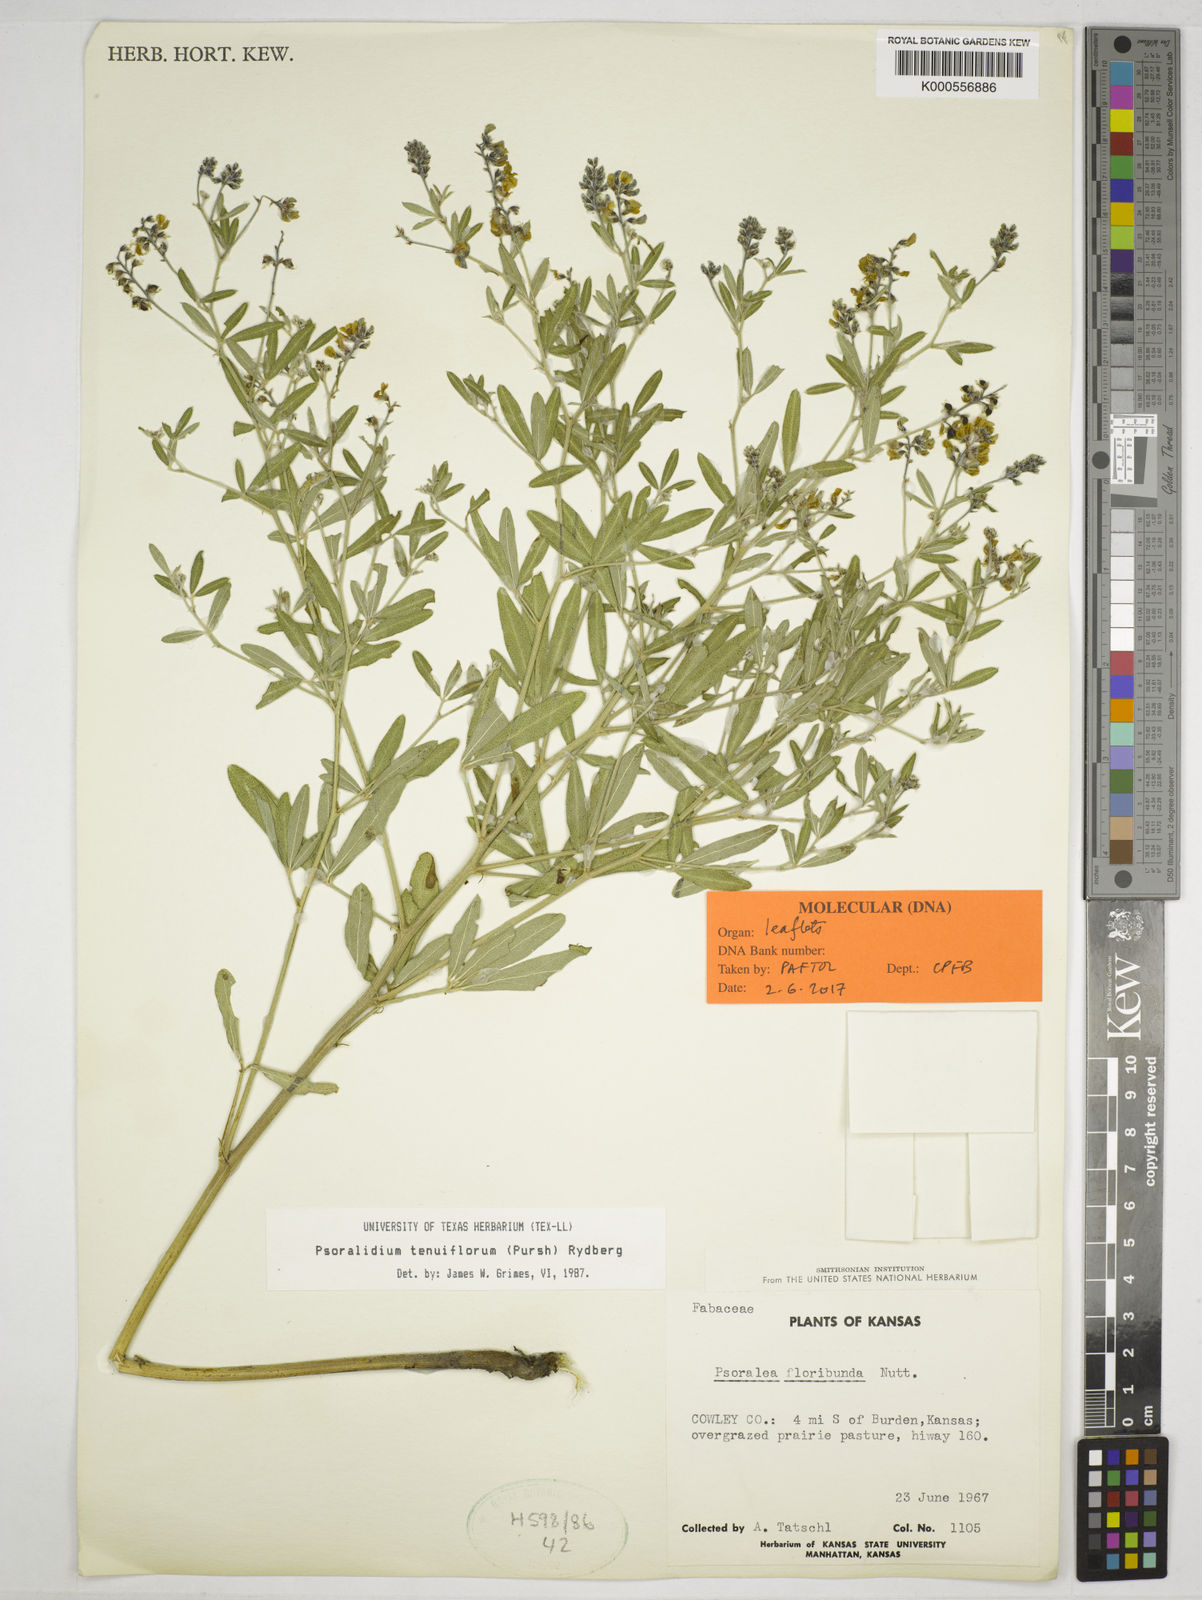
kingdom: Plantae
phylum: Tracheophyta
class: Magnoliopsida
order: Fabales
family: Fabaceae
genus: Pediomelum
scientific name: Pediomelum tenuiflorum
